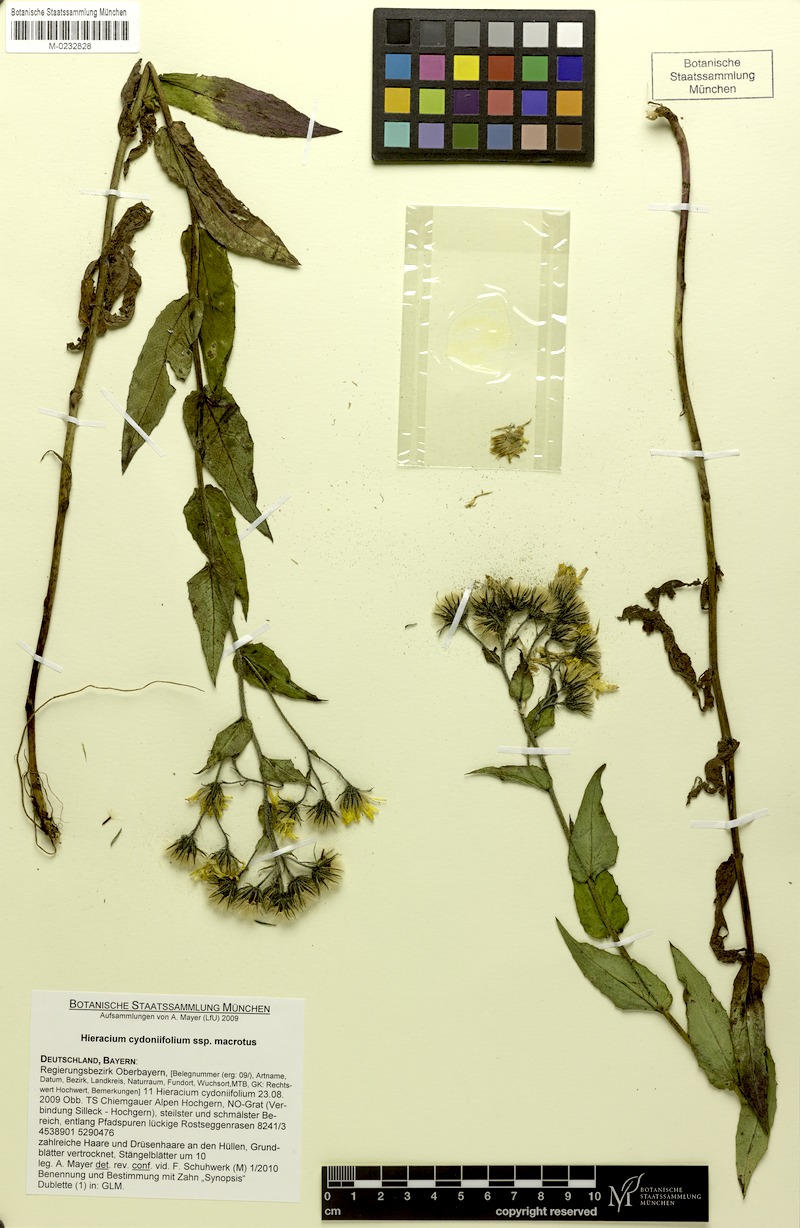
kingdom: Plantae
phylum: Tracheophyta
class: Magnoliopsida
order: Asterales
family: Asteraceae
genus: Hieracium
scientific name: Hieracium cydoniifolium
